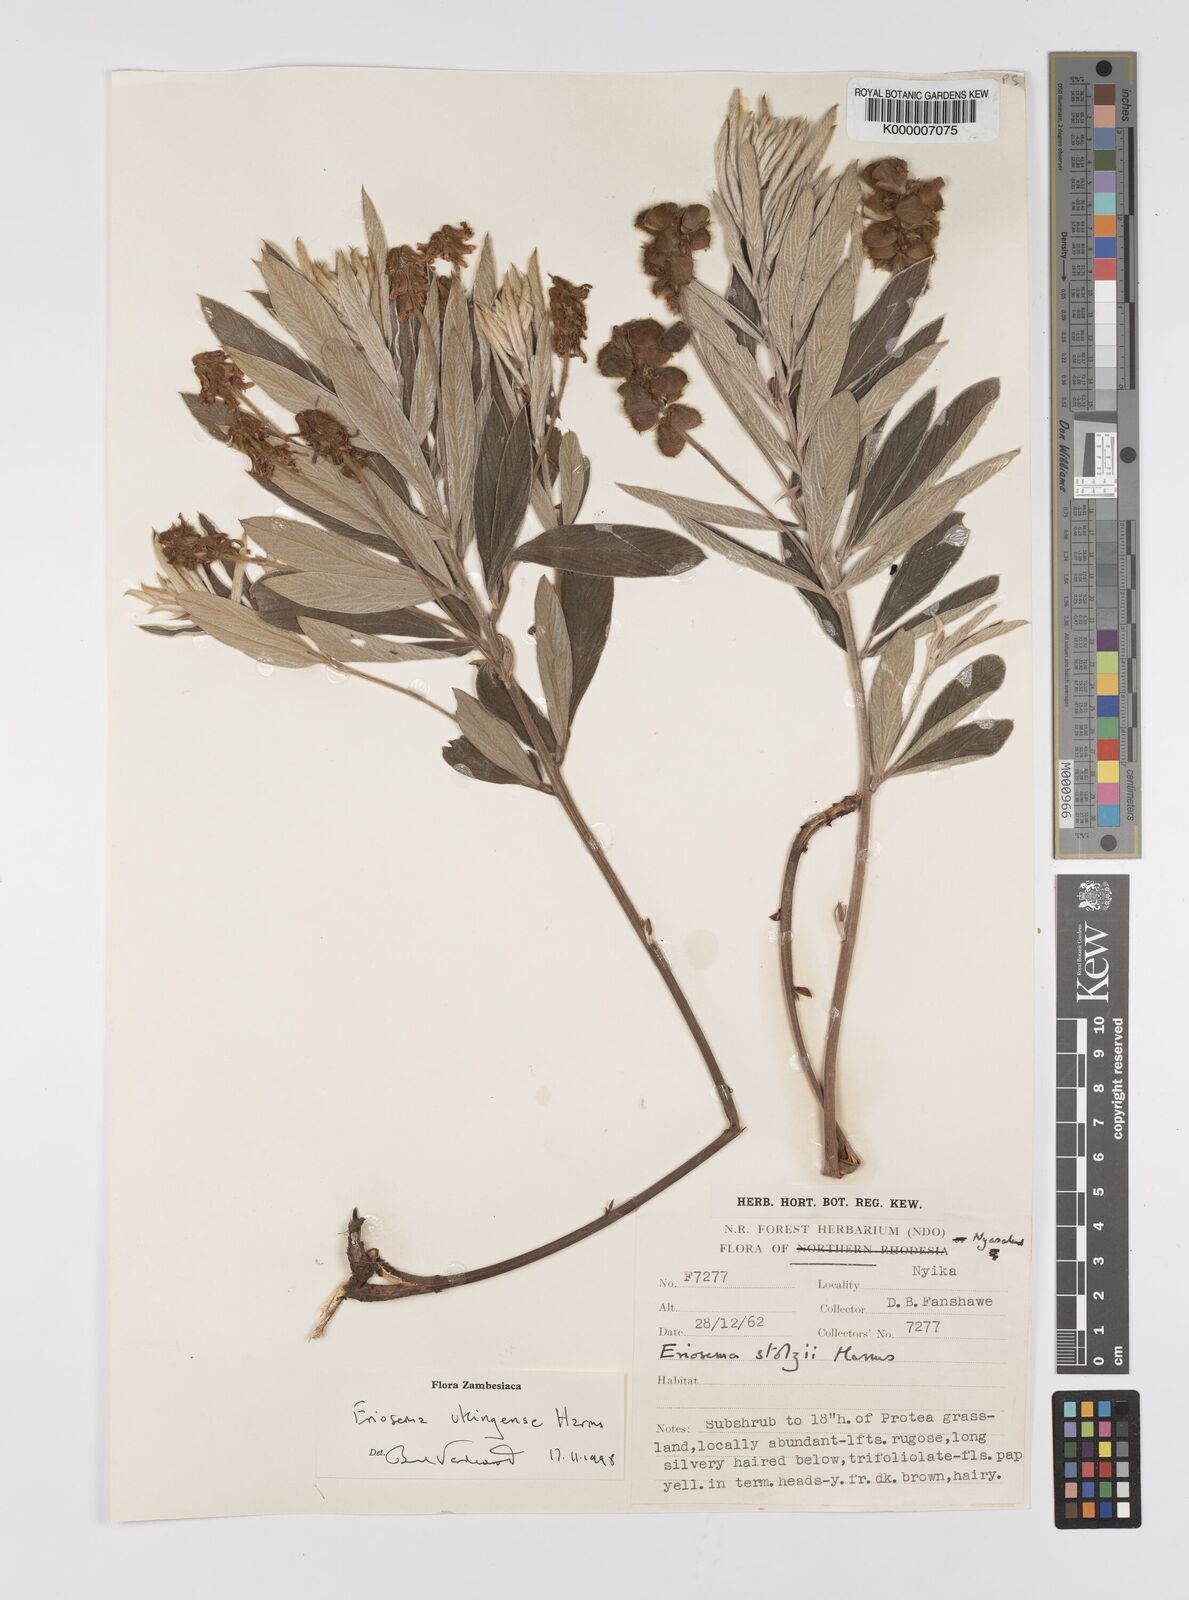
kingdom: Plantae
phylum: Tracheophyta
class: Magnoliopsida
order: Fabales
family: Fabaceae
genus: Eriosema
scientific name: Eriosema ukingense
